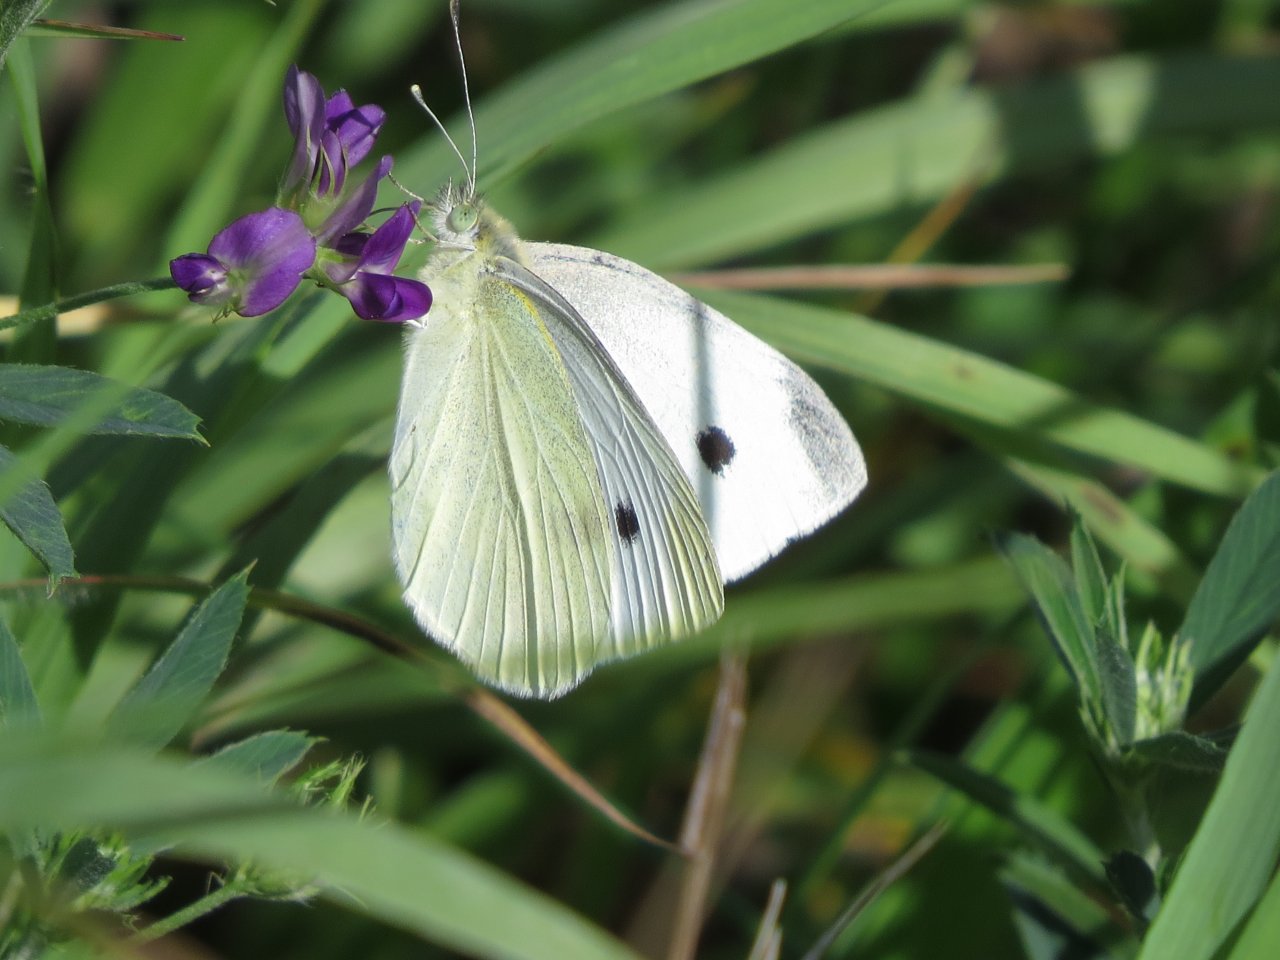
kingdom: Animalia
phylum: Arthropoda
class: Insecta
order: Lepidoptera
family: Pieridae
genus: Pieris
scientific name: Pieris rapae
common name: Cabbage White
